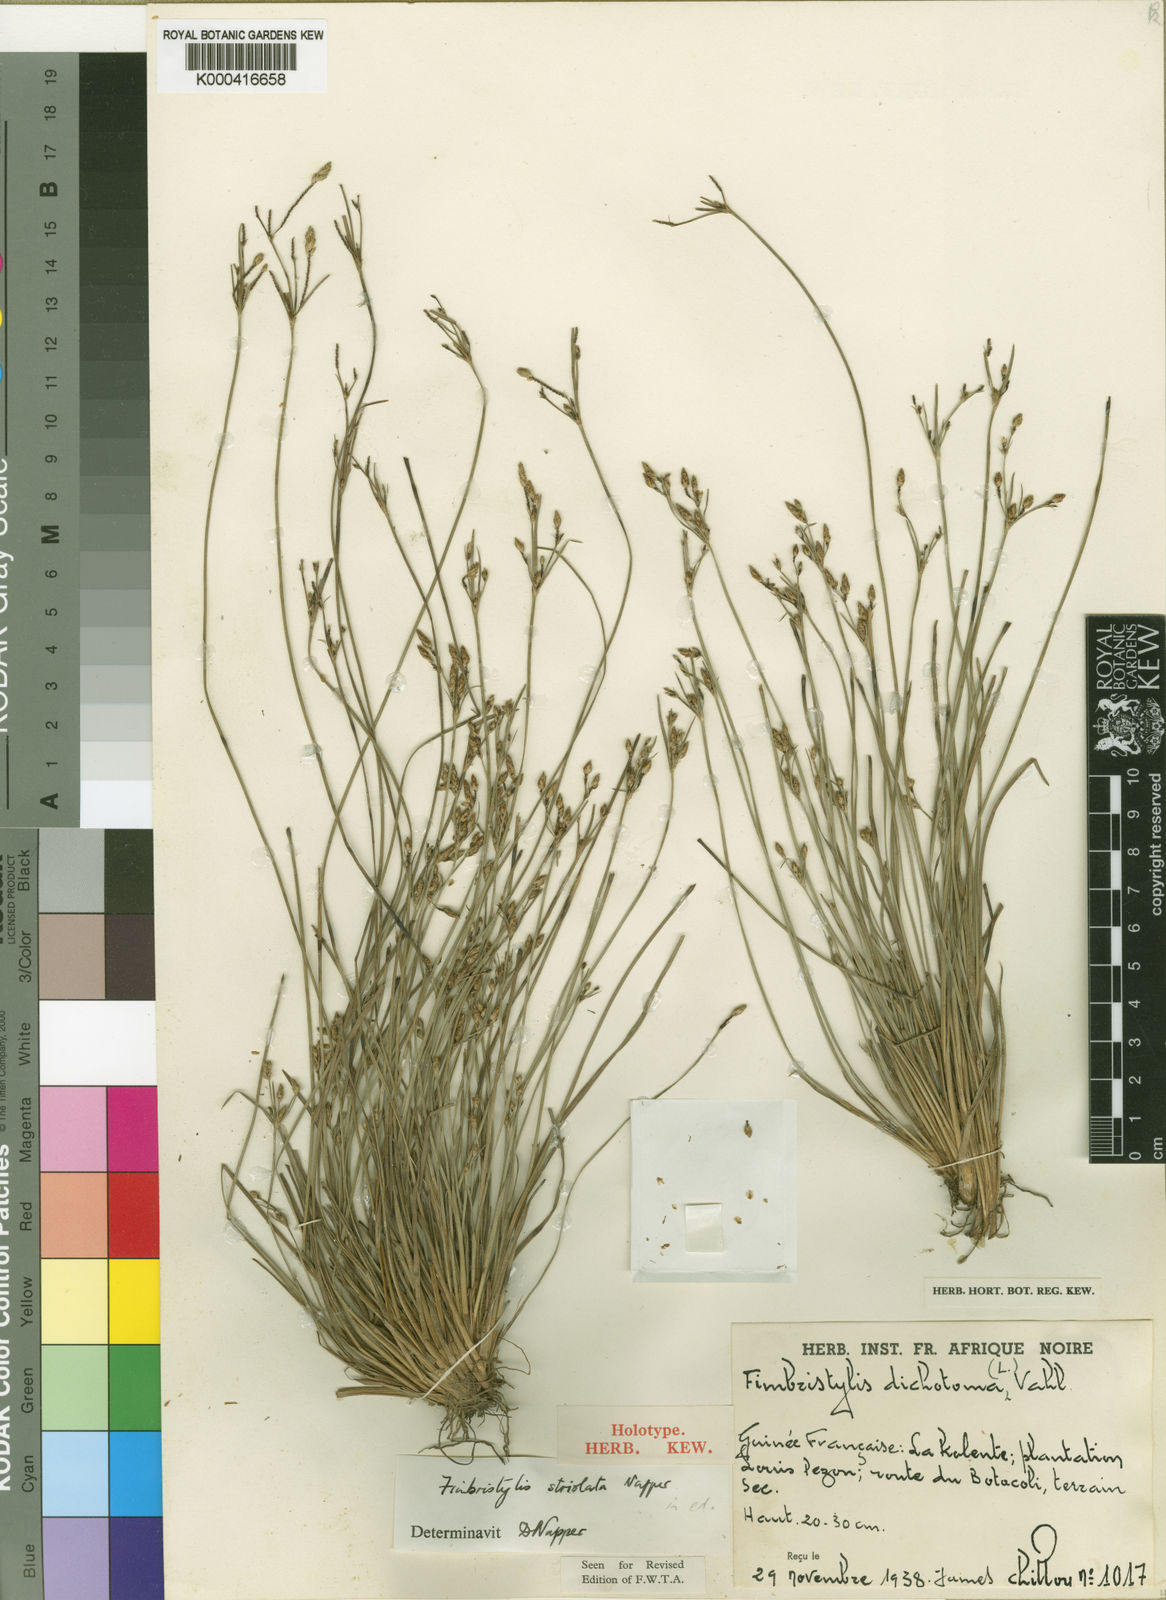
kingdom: Plantae
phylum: Tracheophyta
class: Liliopsida
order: Poales
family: Cyperaceae
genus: Fimbristylis
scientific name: Fimbristylis striolata
